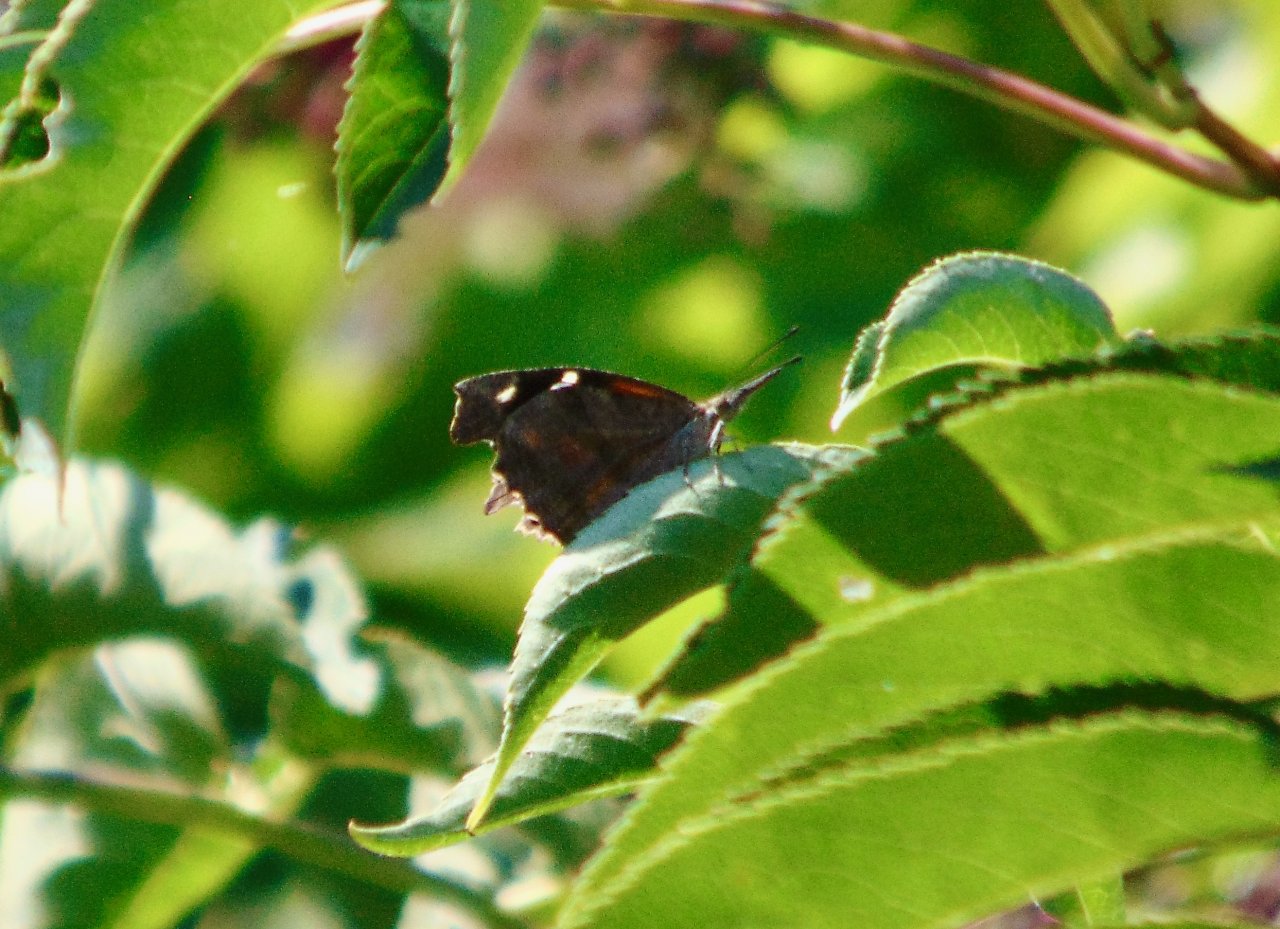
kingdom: Animalia
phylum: Arthropoda
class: Insecta
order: Lepidoptera
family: Nymphalidae
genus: Libytheana
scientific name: Libytheana carinenta
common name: American Snout
